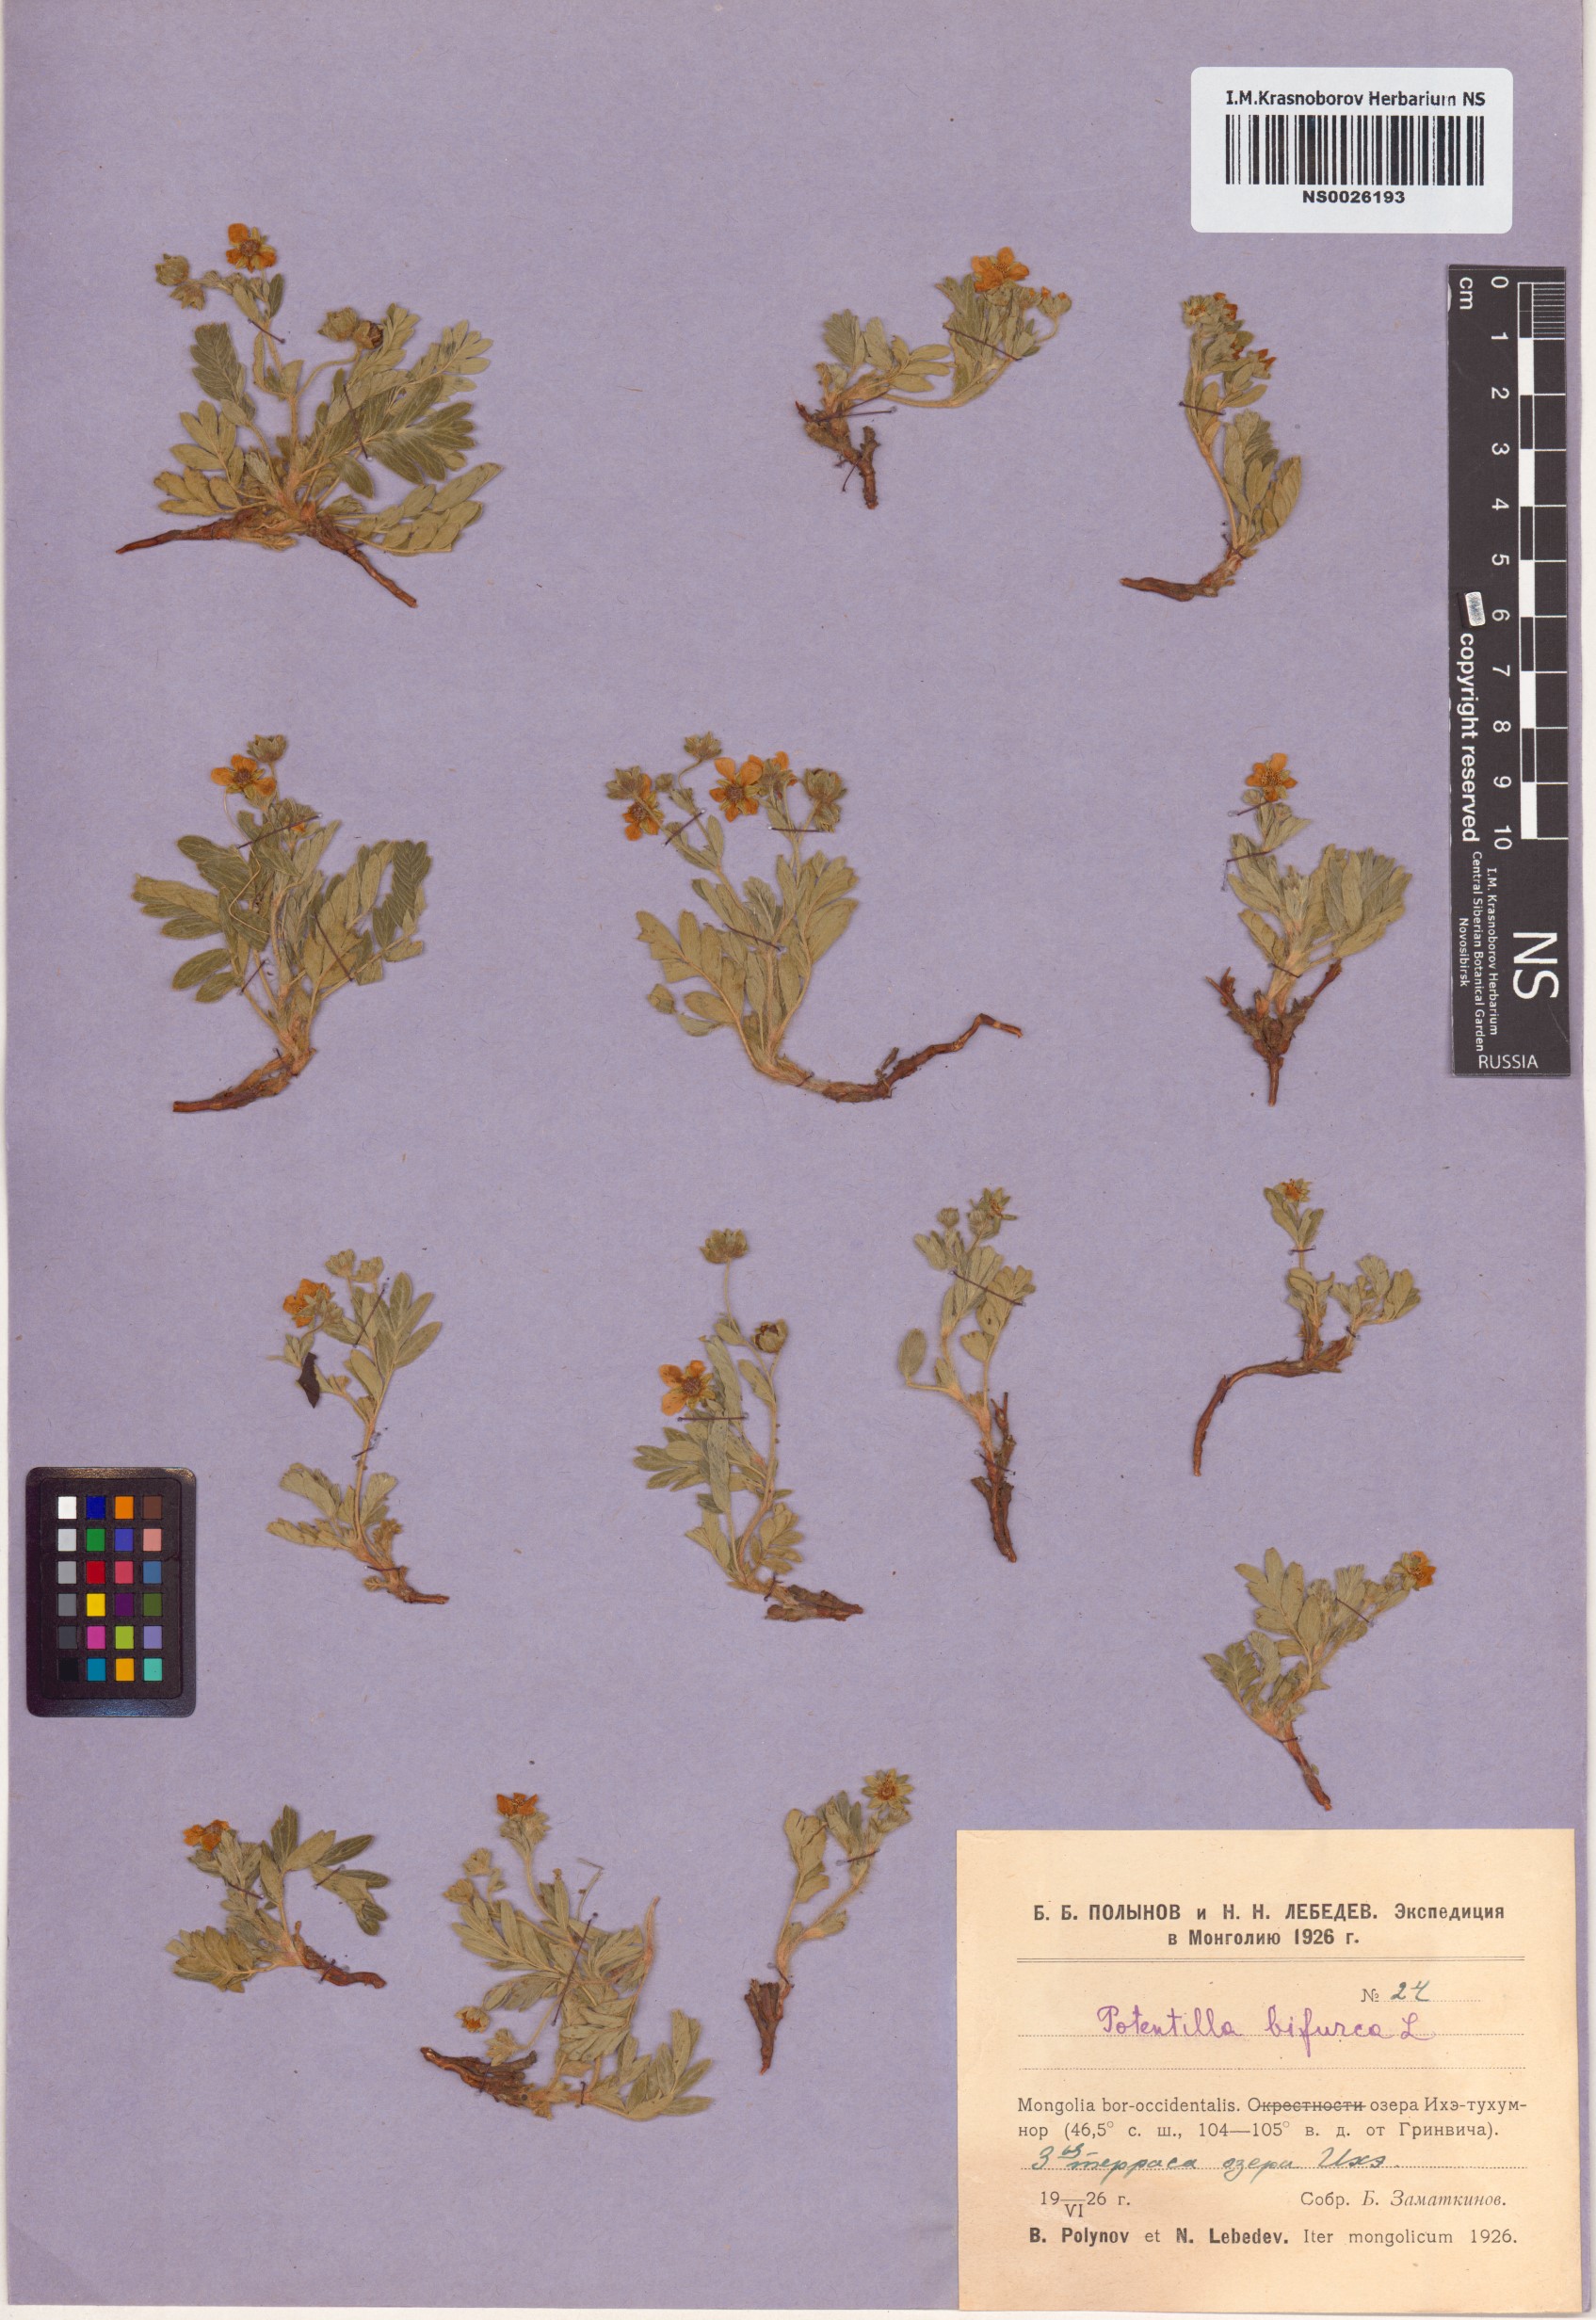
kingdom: Plantae
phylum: Tracheophyta
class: Magnoliopsida
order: Rosales
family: Rosaceae
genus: Sibbaldianthe
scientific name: Sibbaldianthe bifurca
